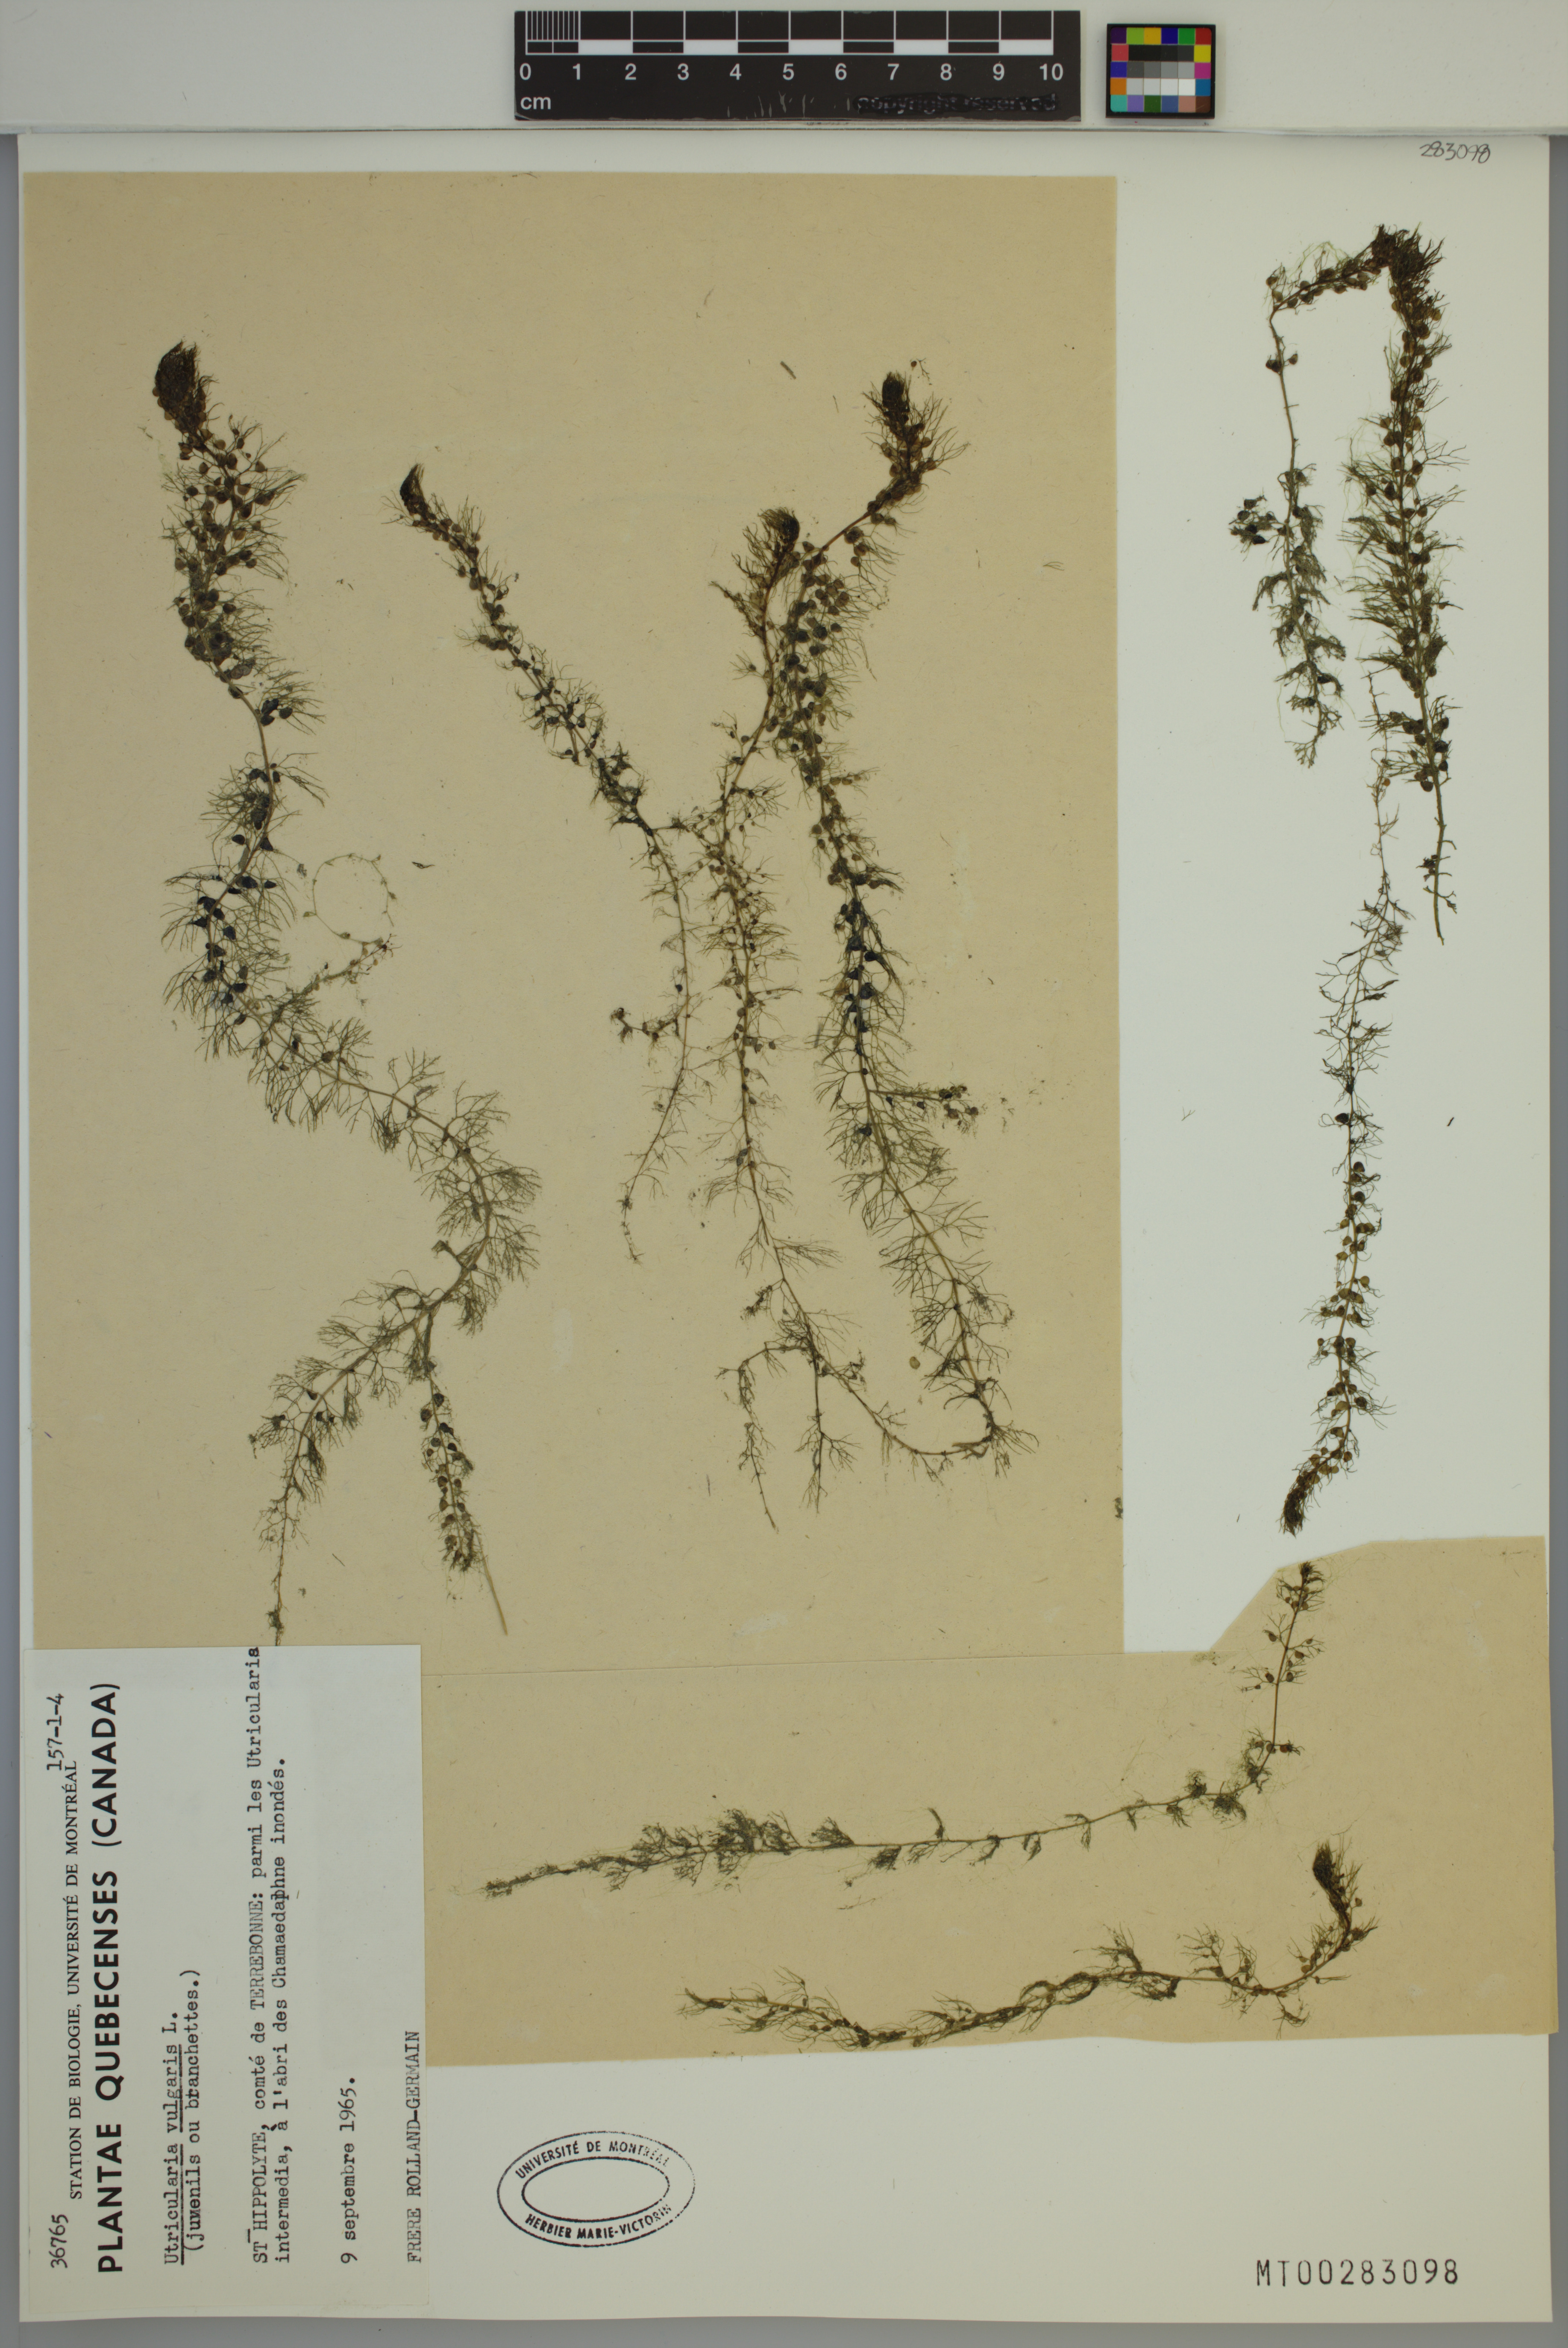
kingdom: Plantae
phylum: Tracheophyta
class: Magnoliopsida
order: Lamiales
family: Lentibulariaceae
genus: Utricularia
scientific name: Utricularia macrorhiza
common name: Common bladderwort
